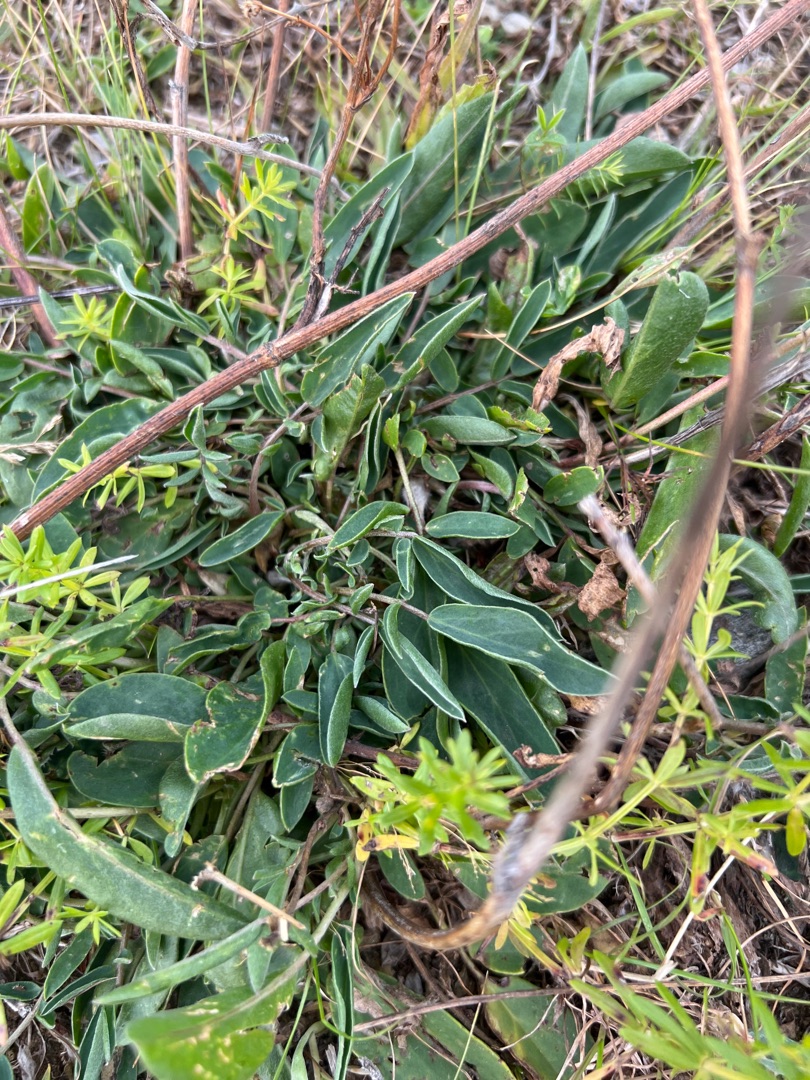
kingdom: Plantae
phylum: Tracheophyta
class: Magnoliopsida
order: Fabales
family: Fabaceae
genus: Anthyllis
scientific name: Anthyllis vulneraria
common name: Rundbælg
